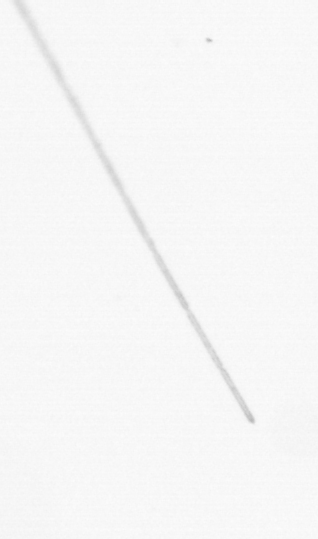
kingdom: Chromista
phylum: Ochrophyta
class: Bacillariophyceae
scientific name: Bacillariophyceae
